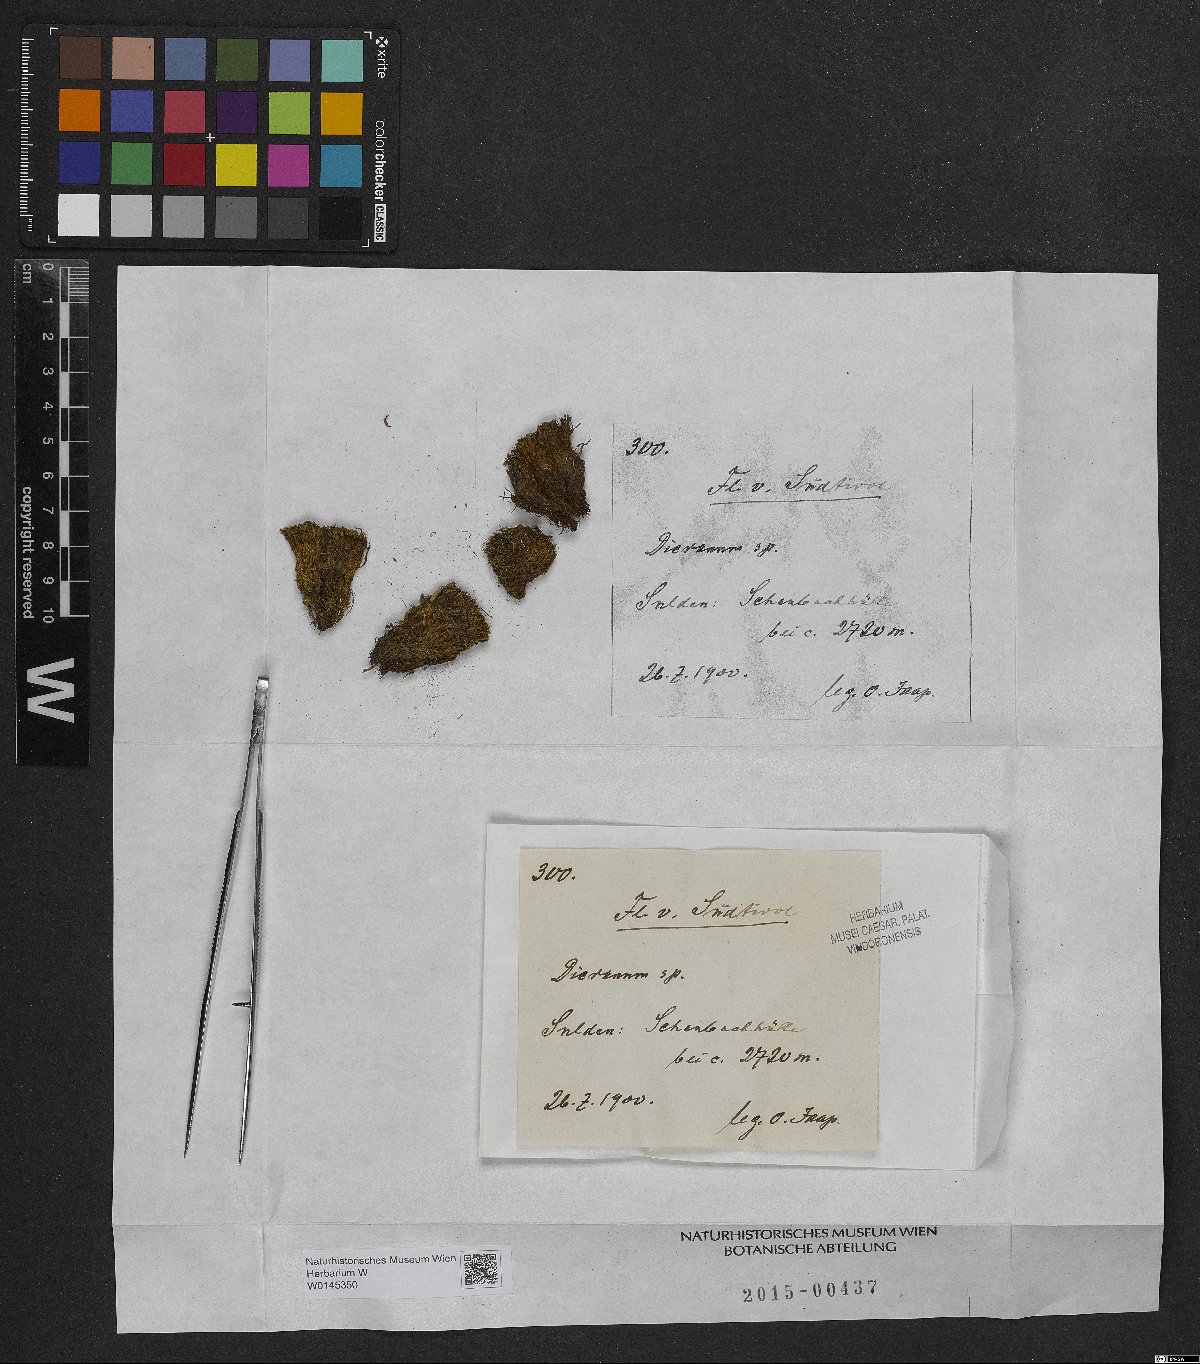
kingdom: Plantae
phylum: Bryophyta
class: Bryopsida
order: Dicranales
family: Dicranaceae
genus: Dicranum
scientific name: Dicranum
